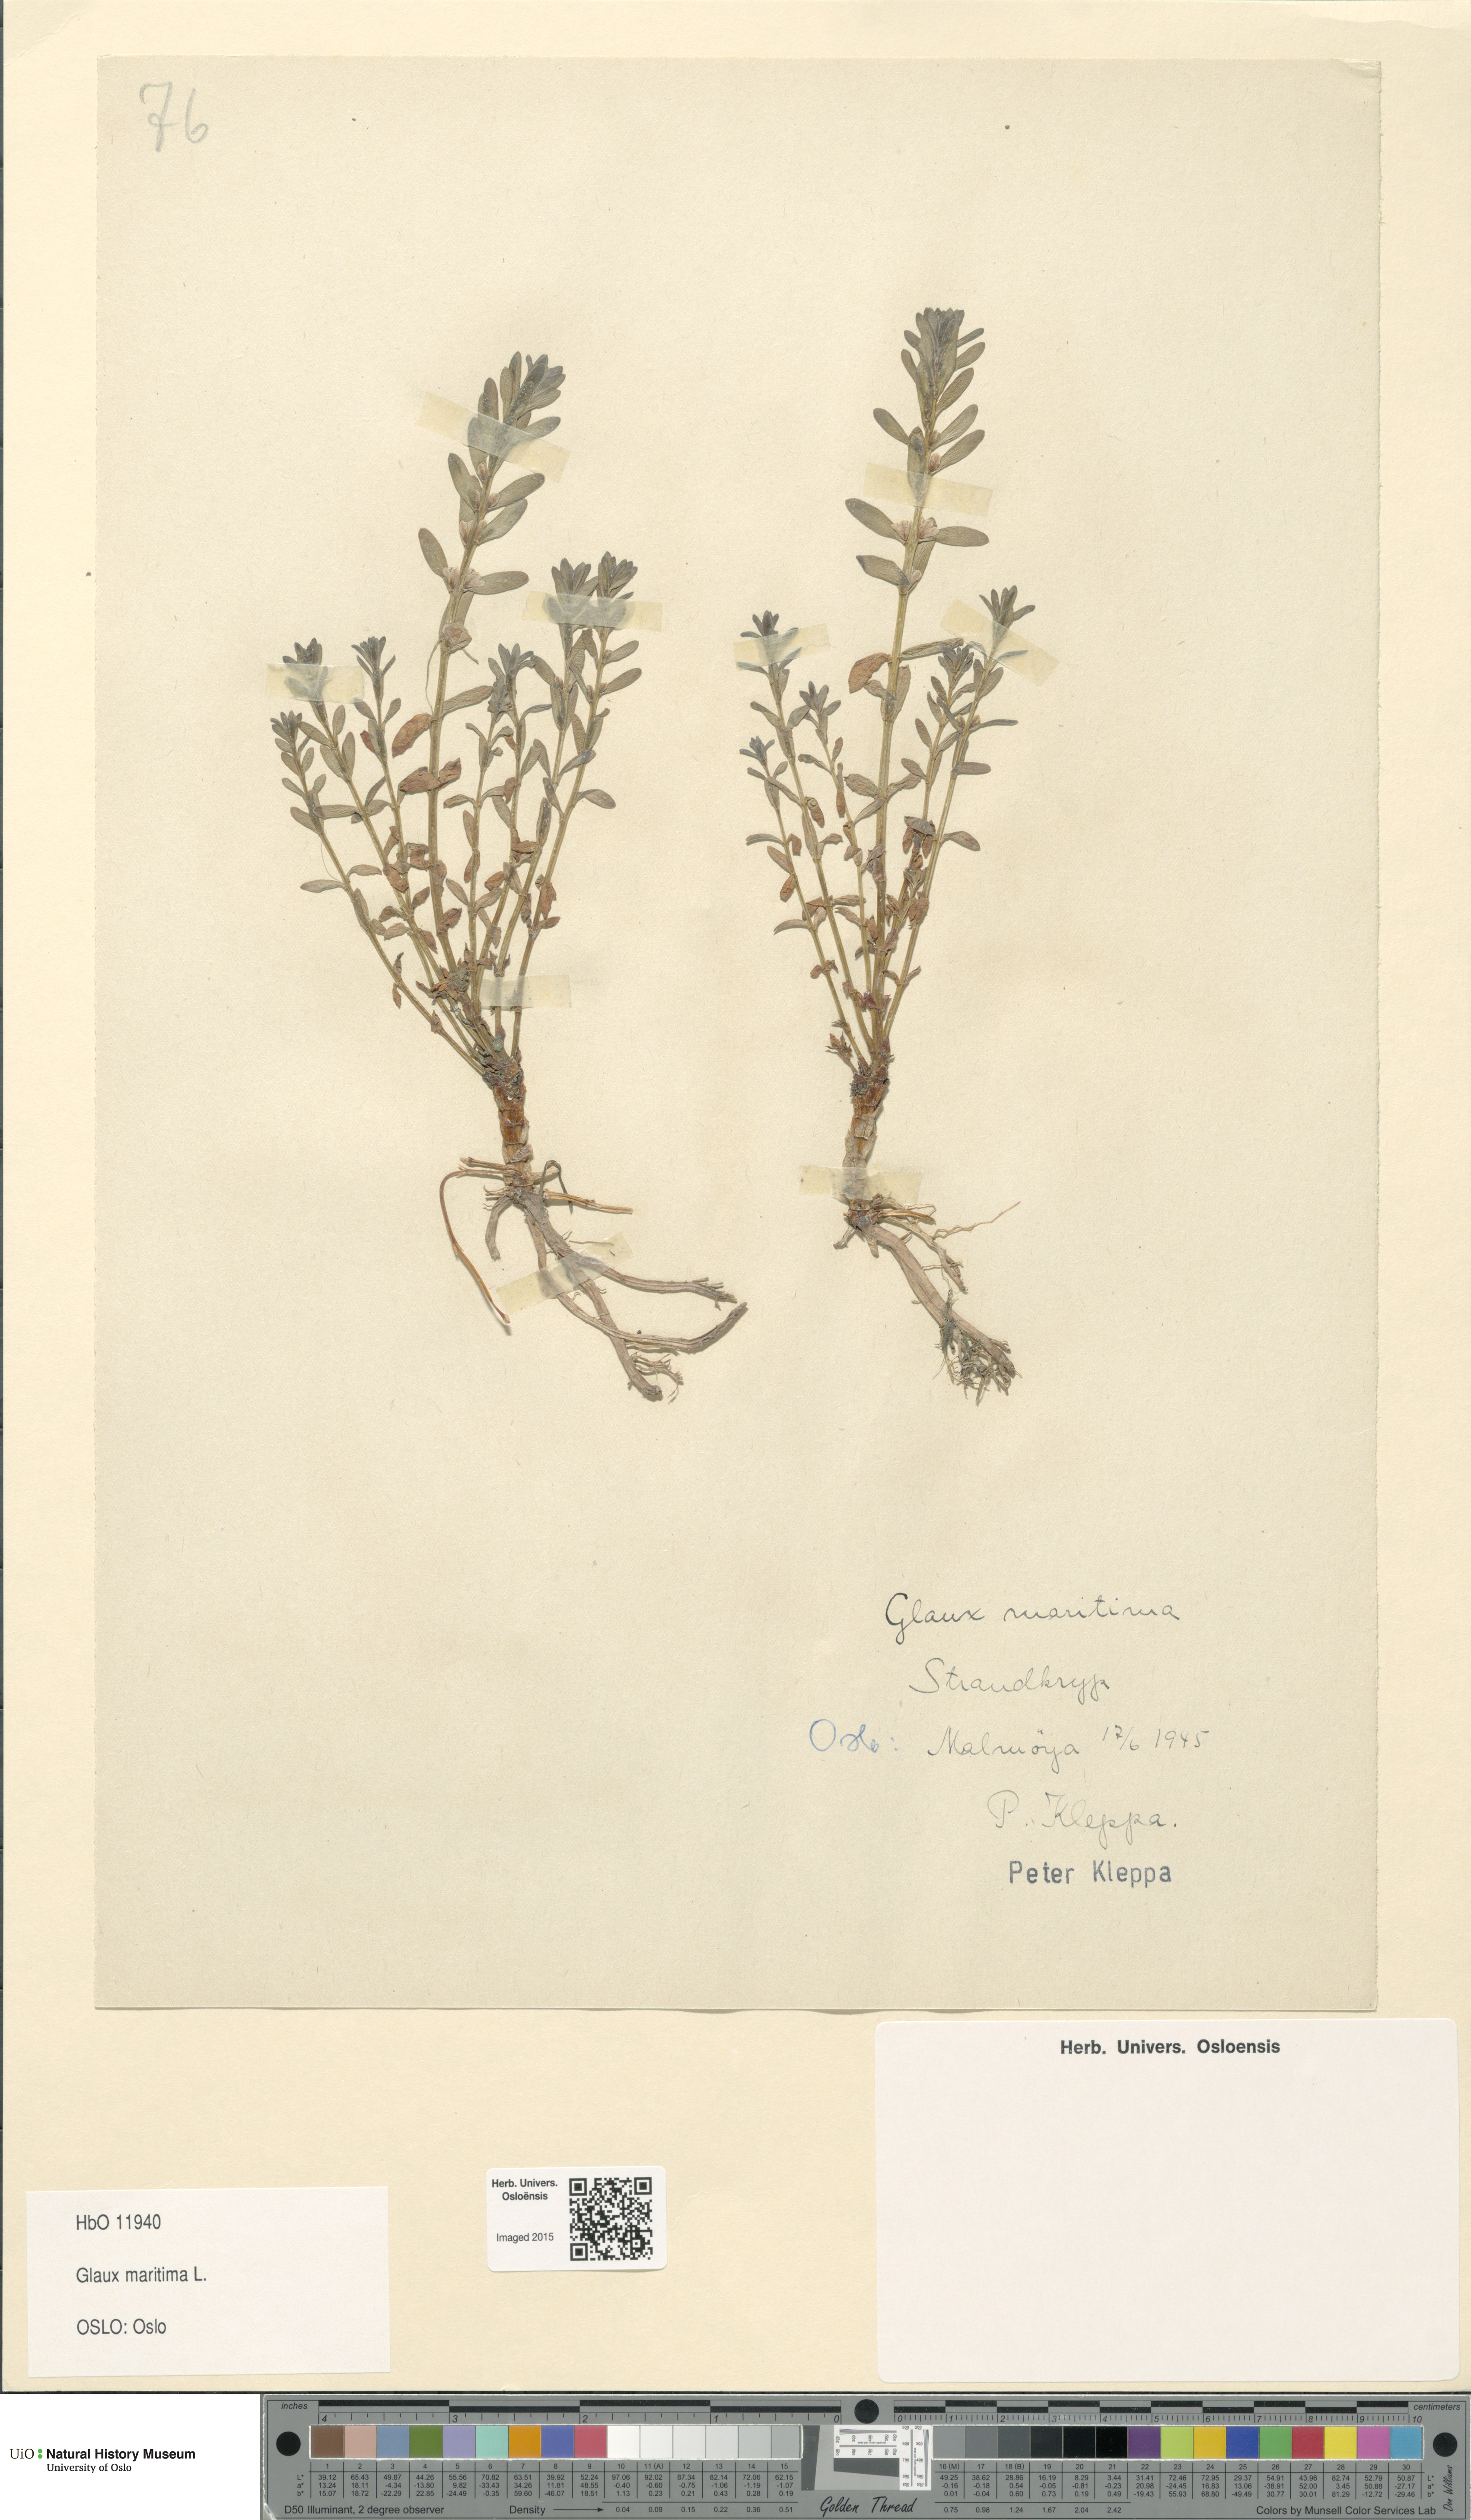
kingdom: Plantae
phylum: Tracheophyta
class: Magnoliopsida
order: Ericales
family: Primulaceae
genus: Lysimachia
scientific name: Lysimachia maritima
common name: Sea milkwort
